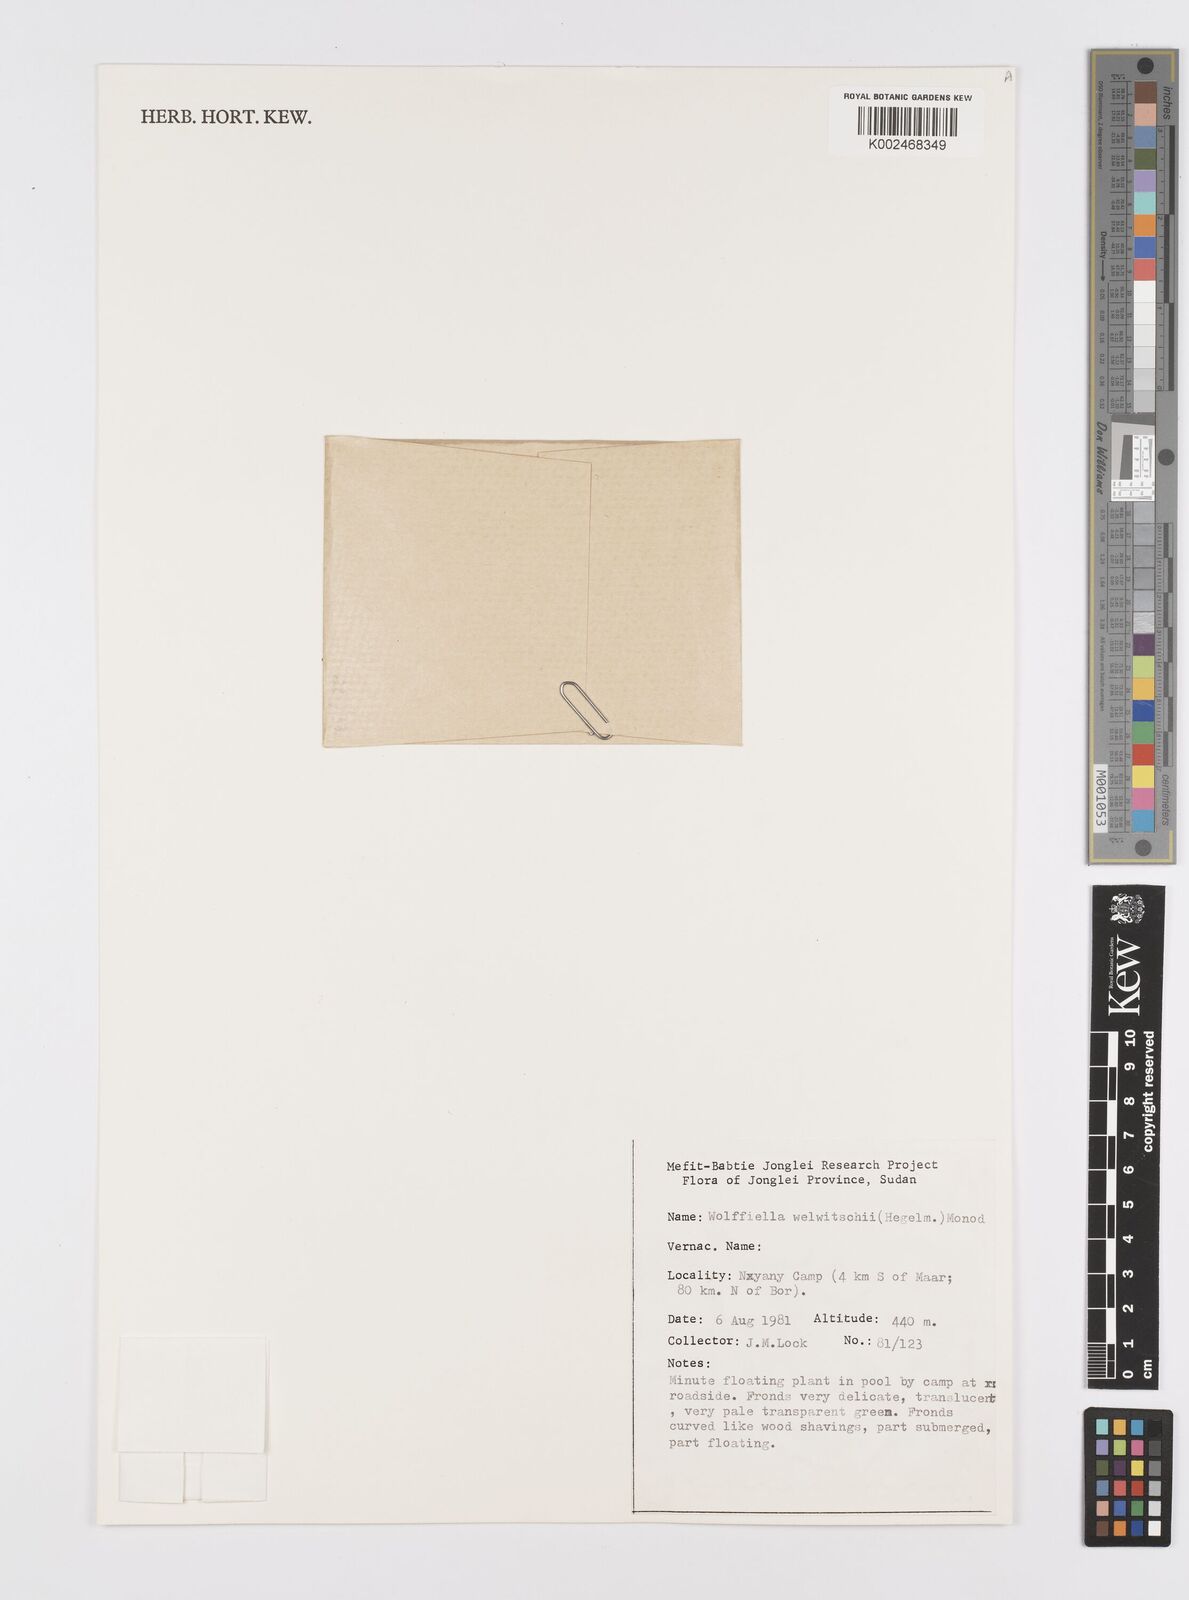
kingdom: Plantae
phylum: Tracheophyta
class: Liliopsida
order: Alismatales
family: Araceae
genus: Wolffiella
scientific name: Wolffiella welwitschii
